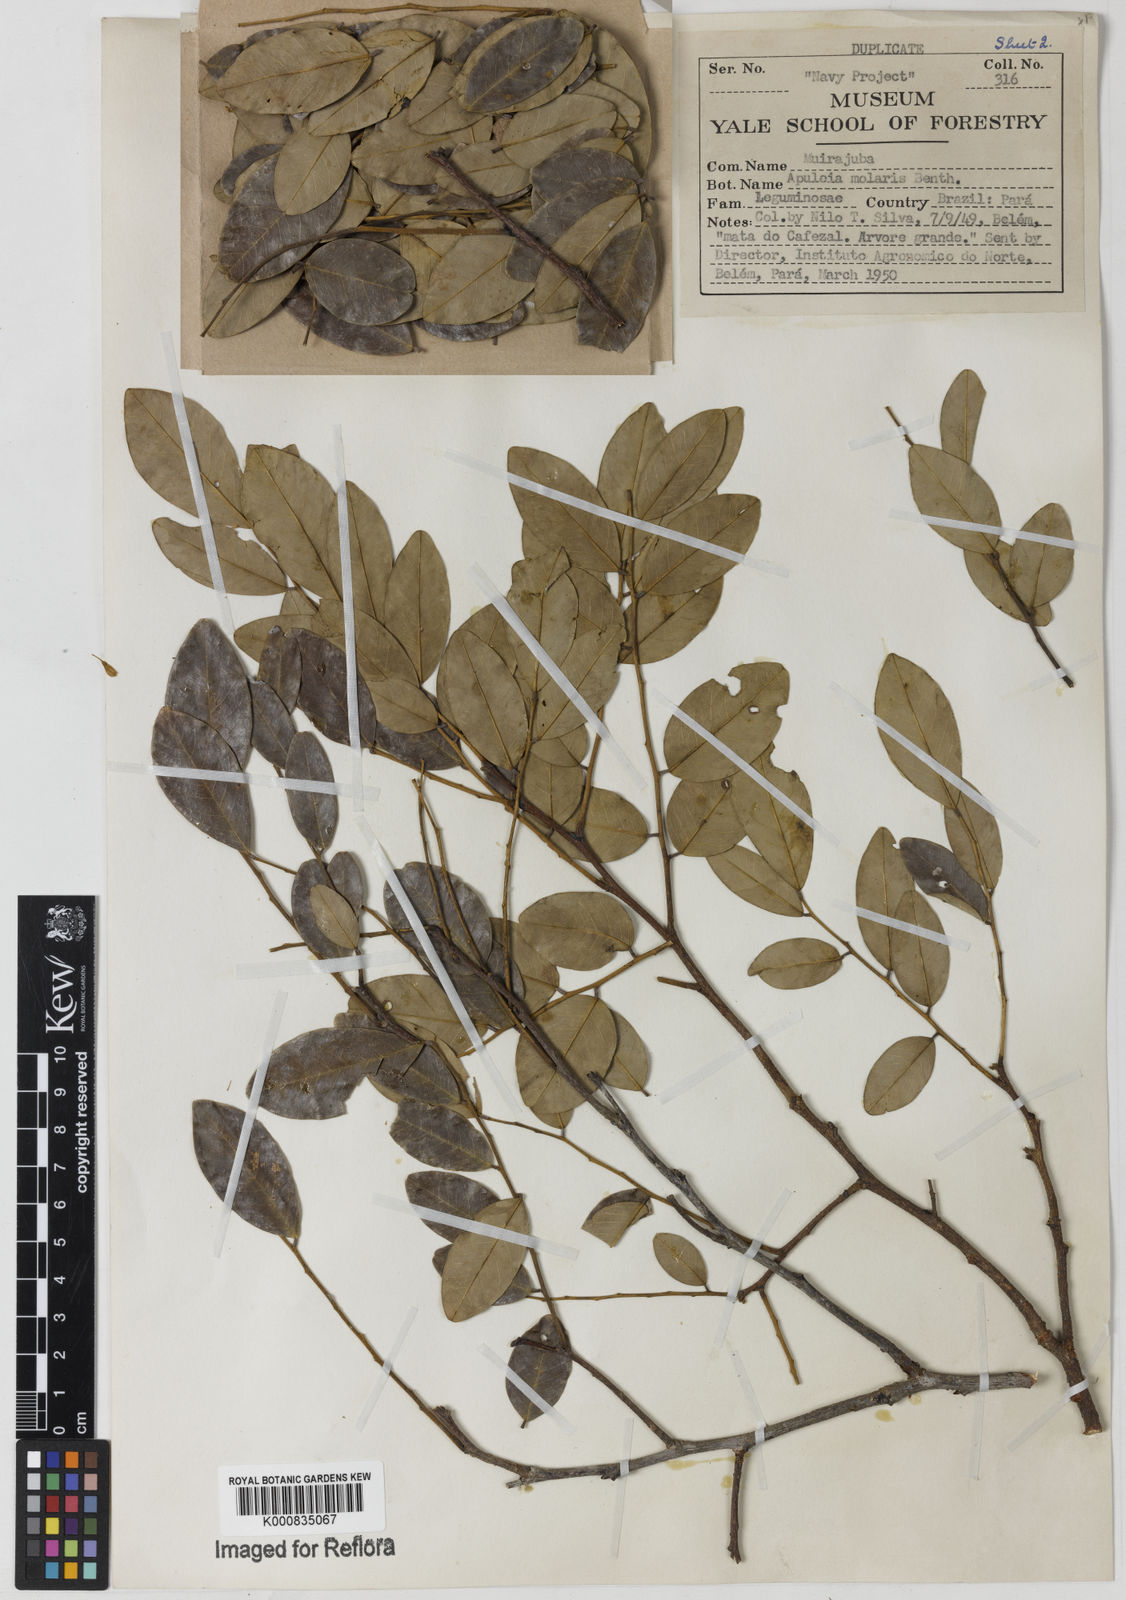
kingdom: Plantae
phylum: Tracheophyta
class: Magnoliopsida
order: Fabales
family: Fabaceae
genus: Apuleia
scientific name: Apuleia leiocarpa
